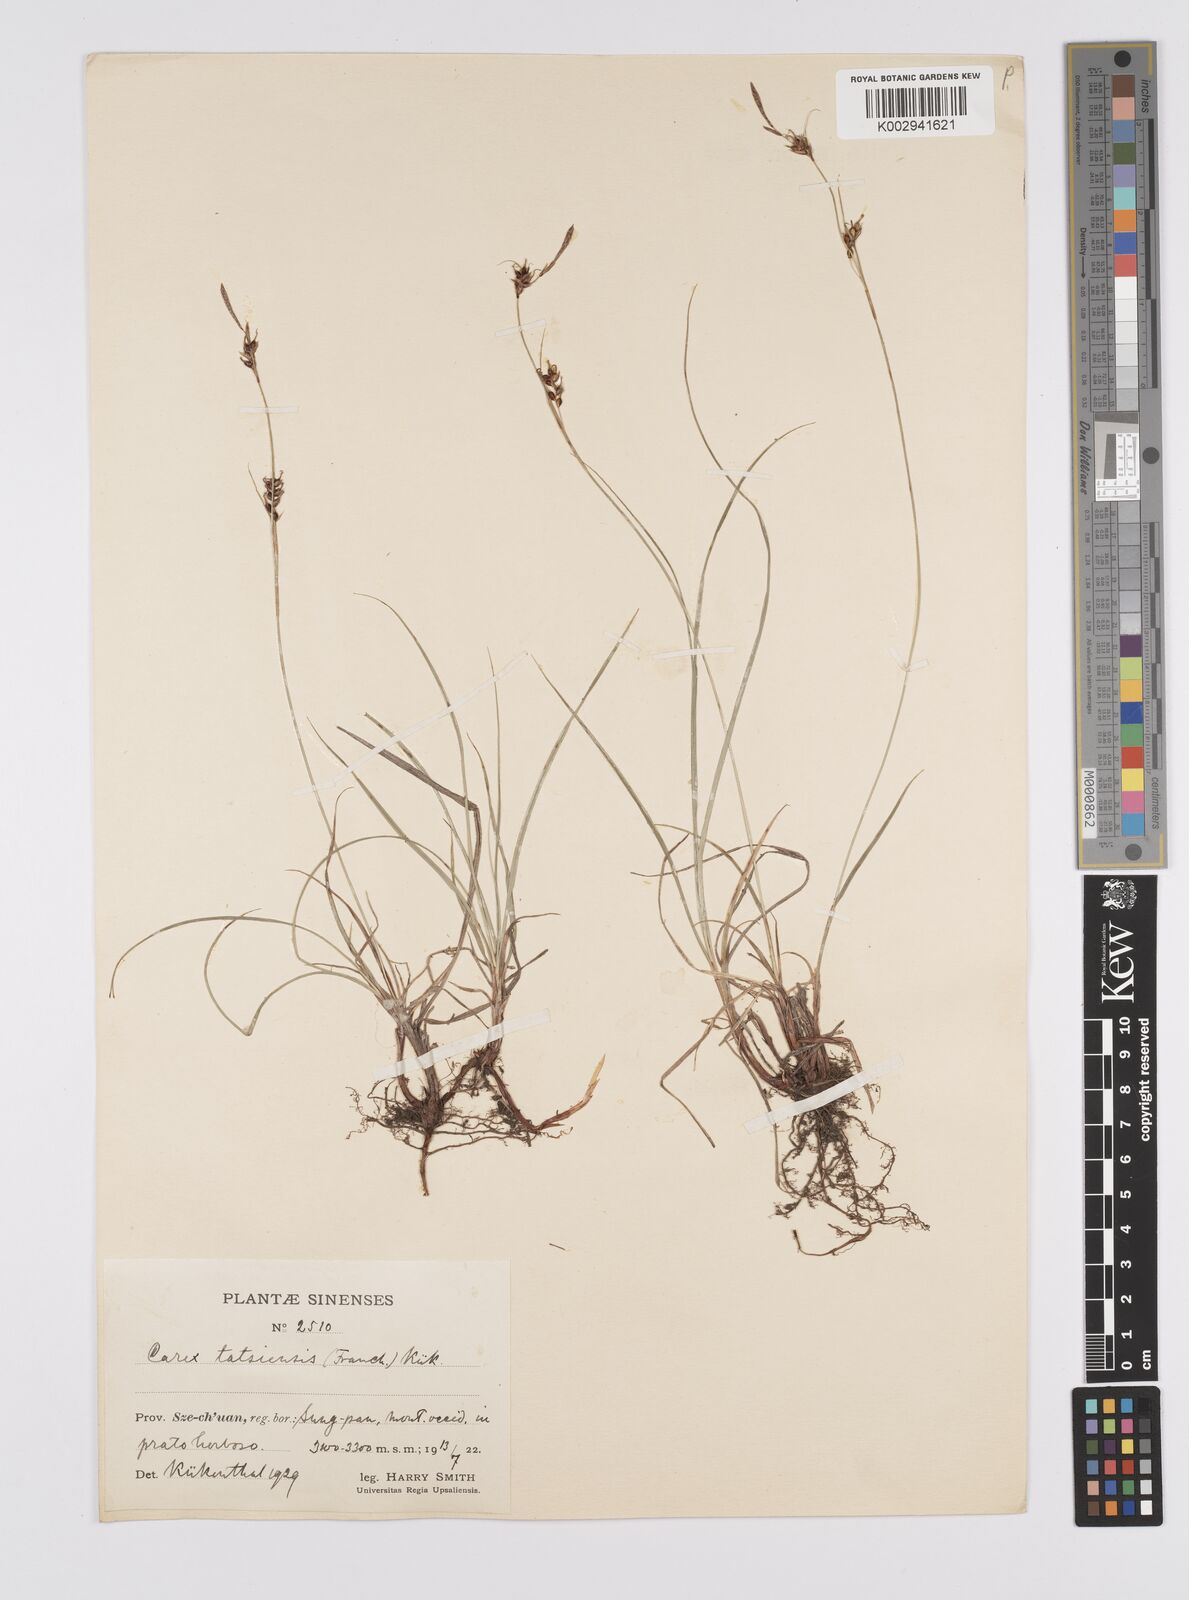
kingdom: Plantae
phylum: Tracheophyta
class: Liliopsida
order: Poales
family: Cyperaceae
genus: Carex
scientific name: Carex tatsiensis
